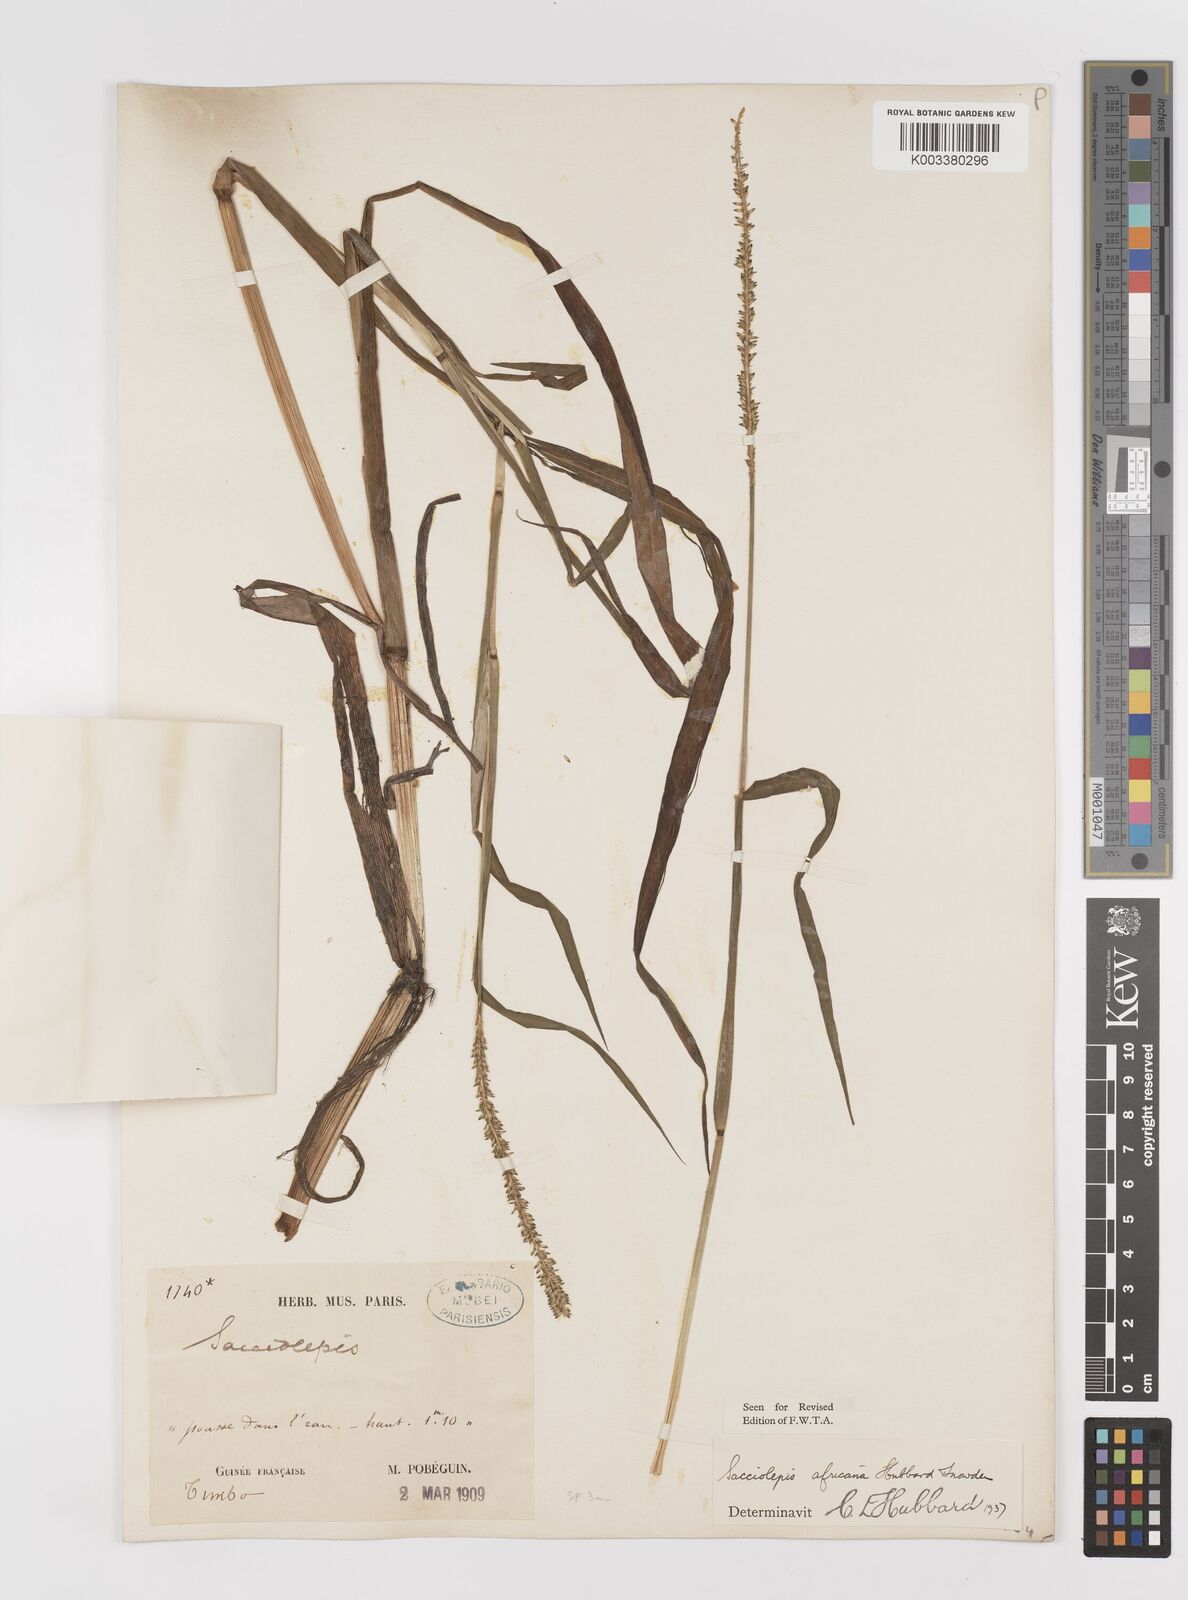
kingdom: Plantae
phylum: Tracheophyta
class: Liliopsida
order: Poales
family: Poaceae
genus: Sacciolepis
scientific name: Sacciolepis africana
